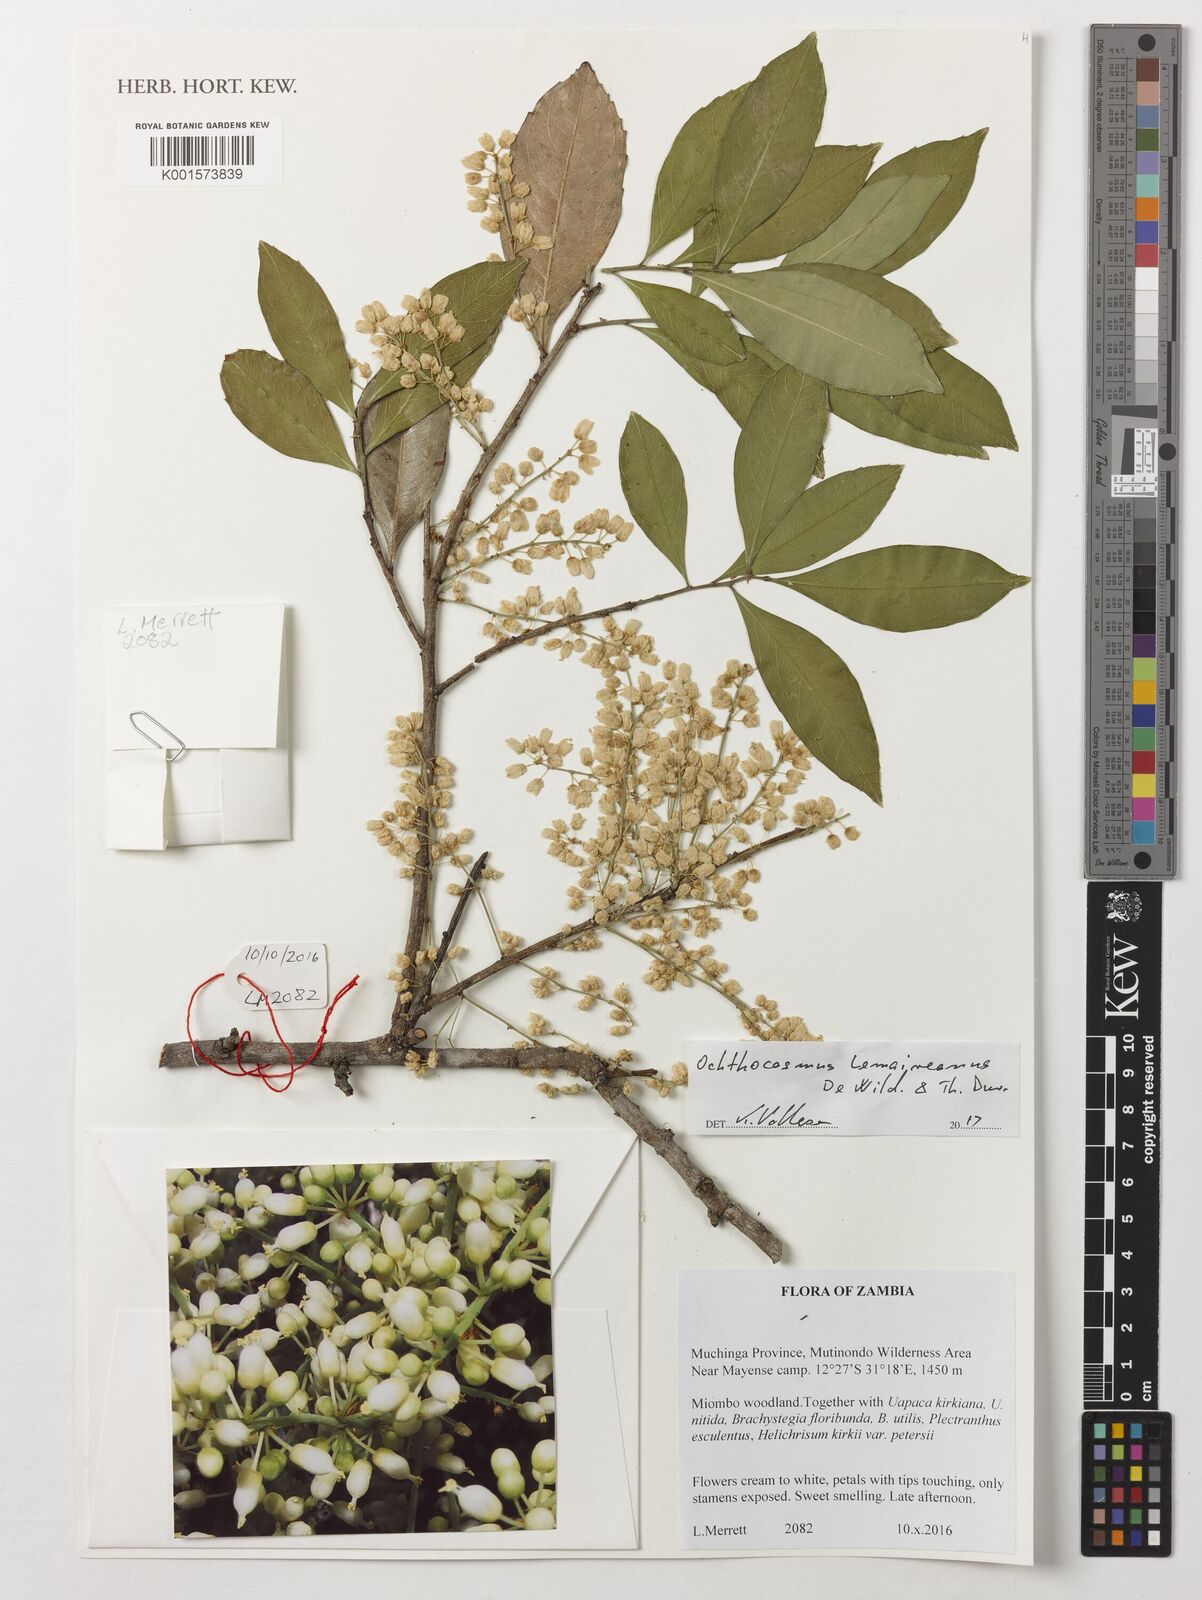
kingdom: Plantae
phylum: Tracheophyta
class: Magnoliopsida
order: Malpighiales
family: Ixonanthaceae
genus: Phyllocosmus
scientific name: Phyllocosmus lemaireanus
